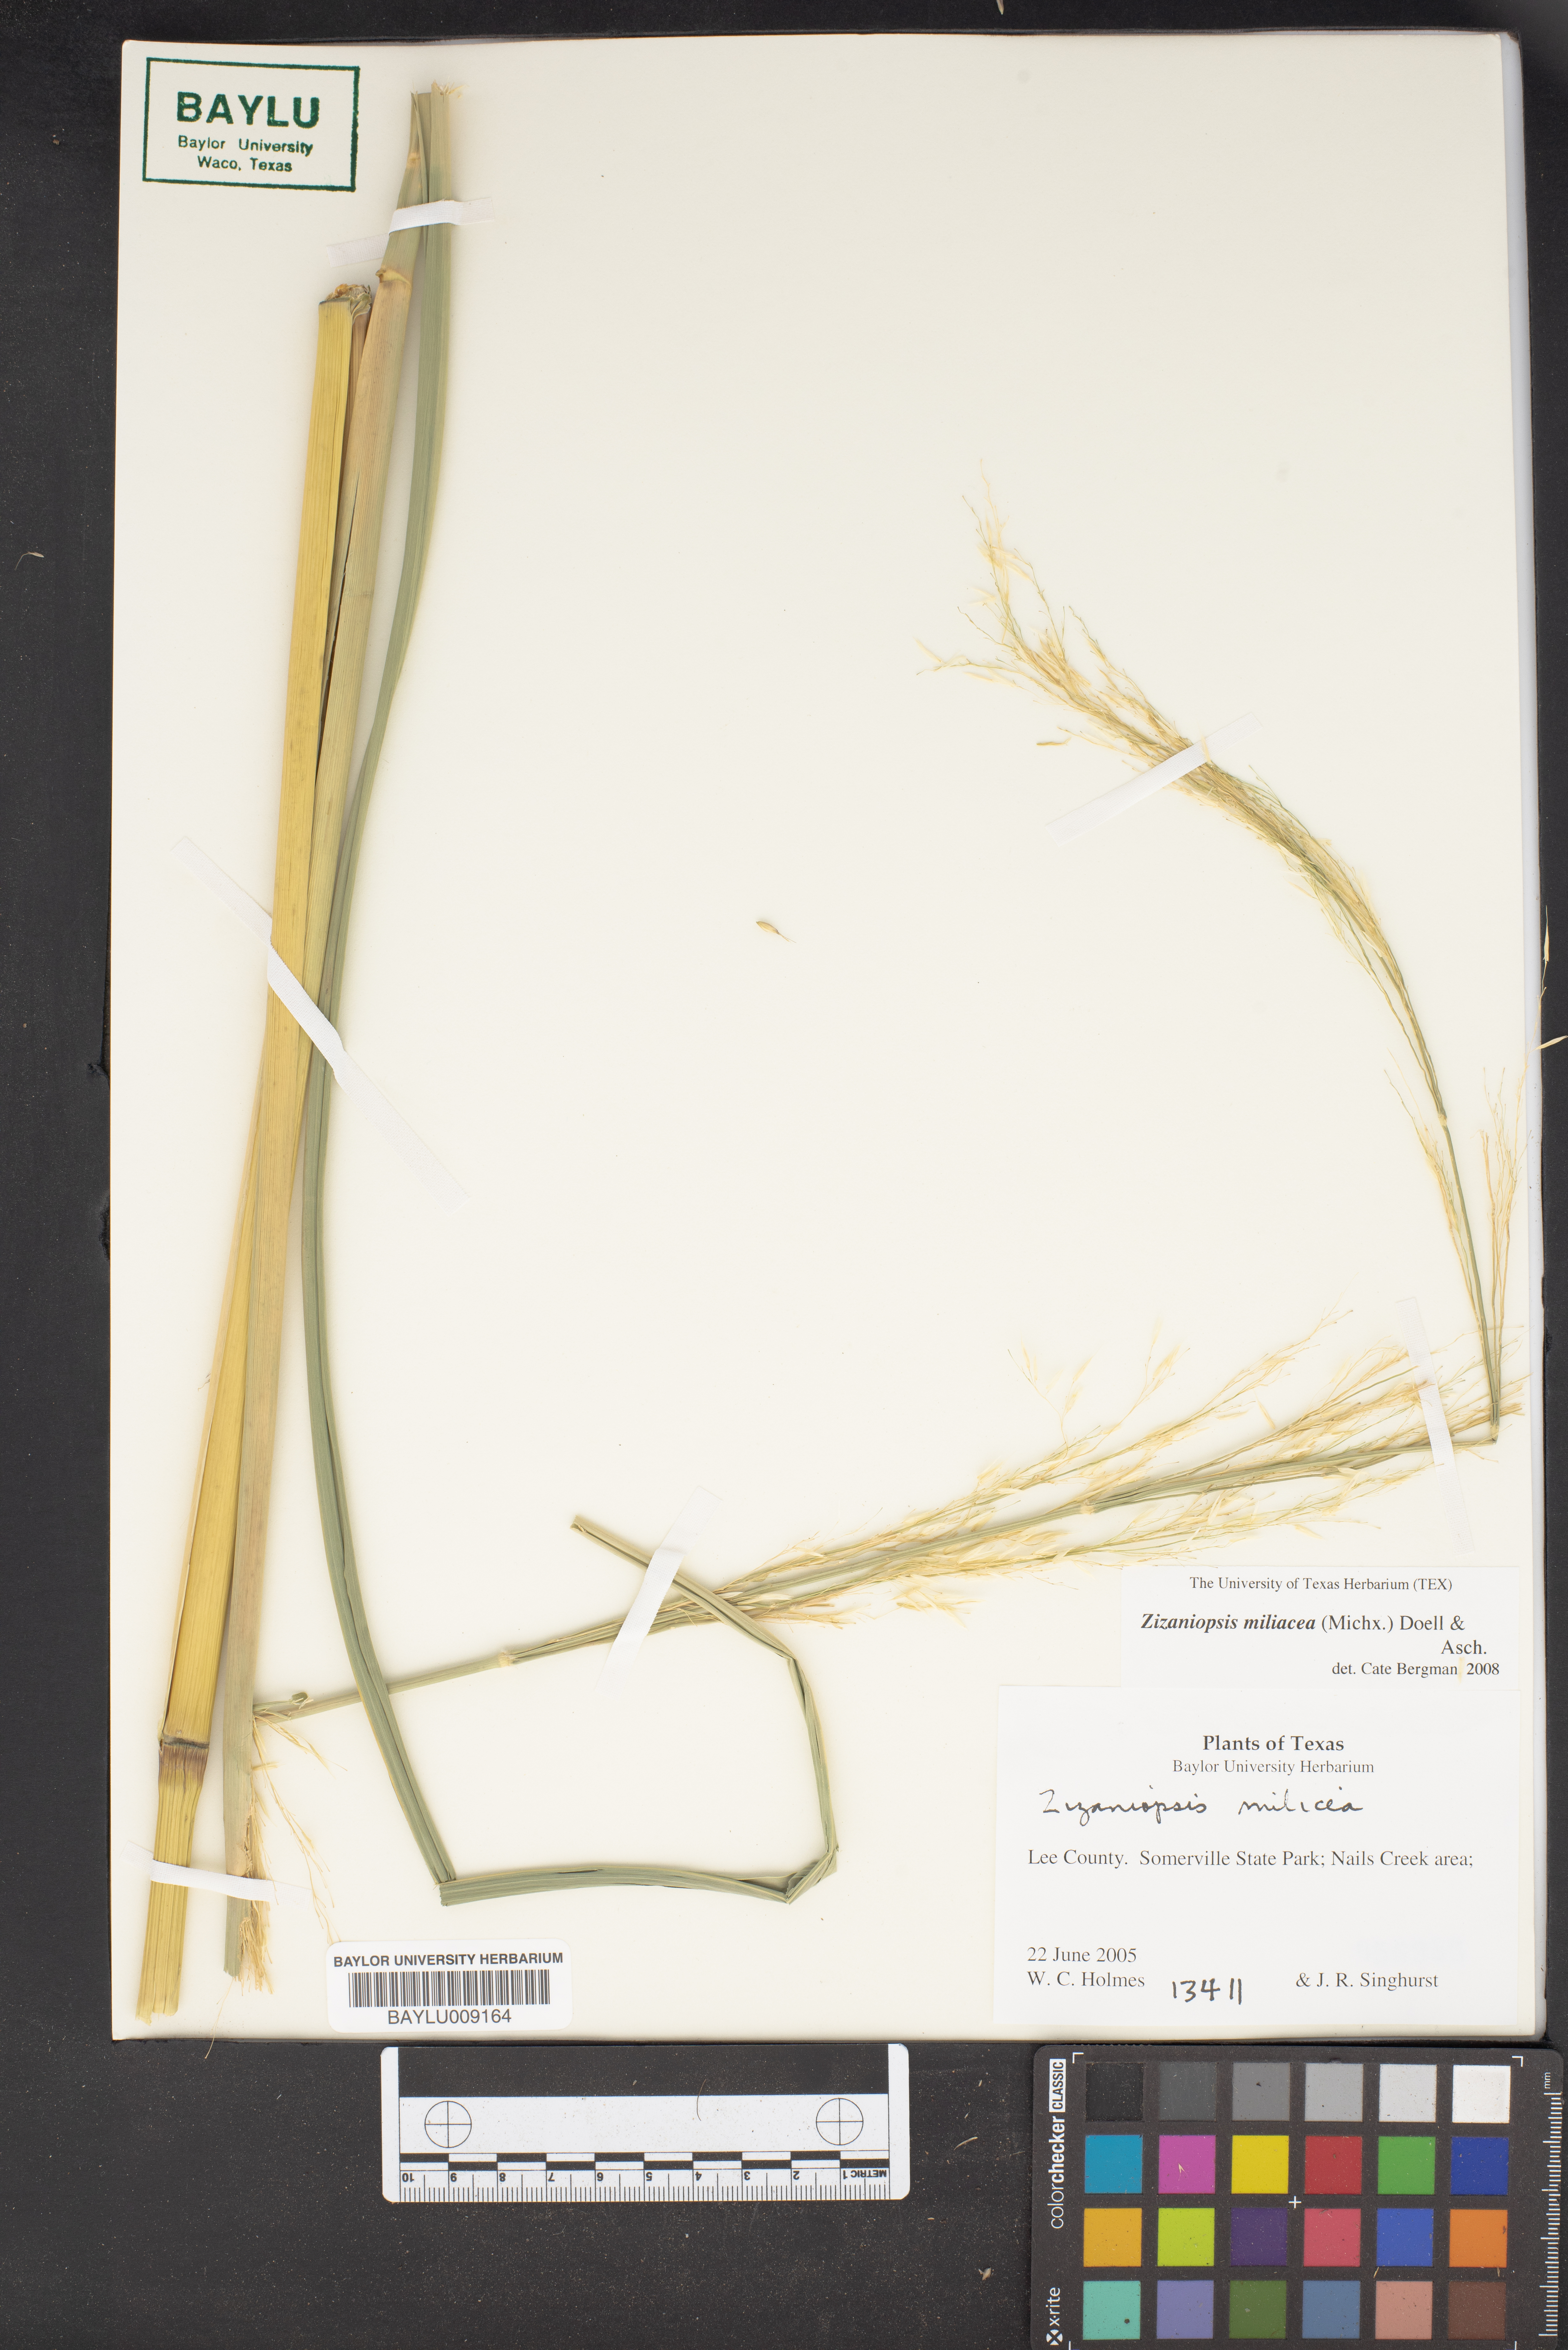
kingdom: Plantae
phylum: Tracheophyta
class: Liliopsida
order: Poales
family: Poaceae
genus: Zizaniopsis
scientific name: Zizaniopsis miliacea
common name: Giant-cutgrass
